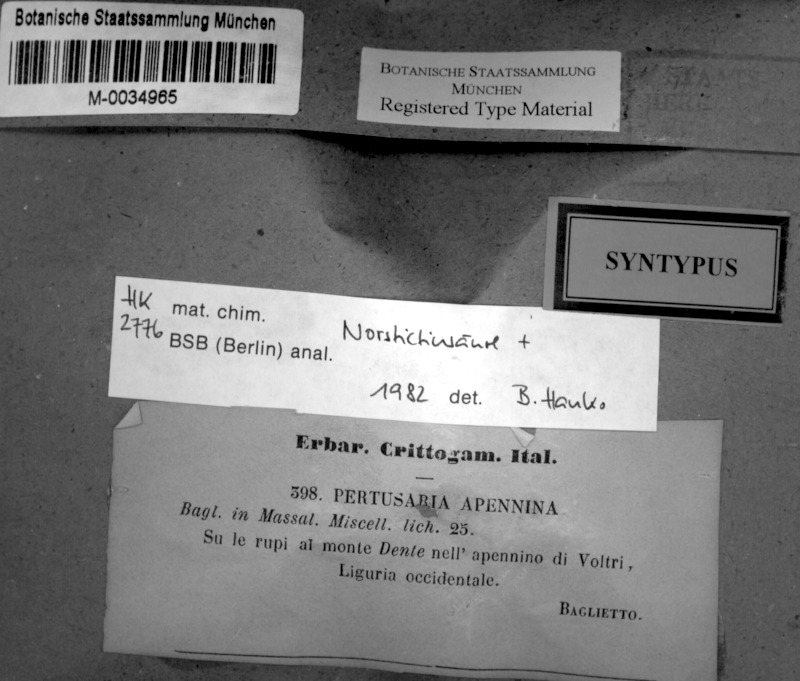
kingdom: Fungi
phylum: Ascomycota
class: Lecanoromycetes
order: Pertusariales
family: Pertusariaceae
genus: Pertusaria
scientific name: Pertusaria apennina
